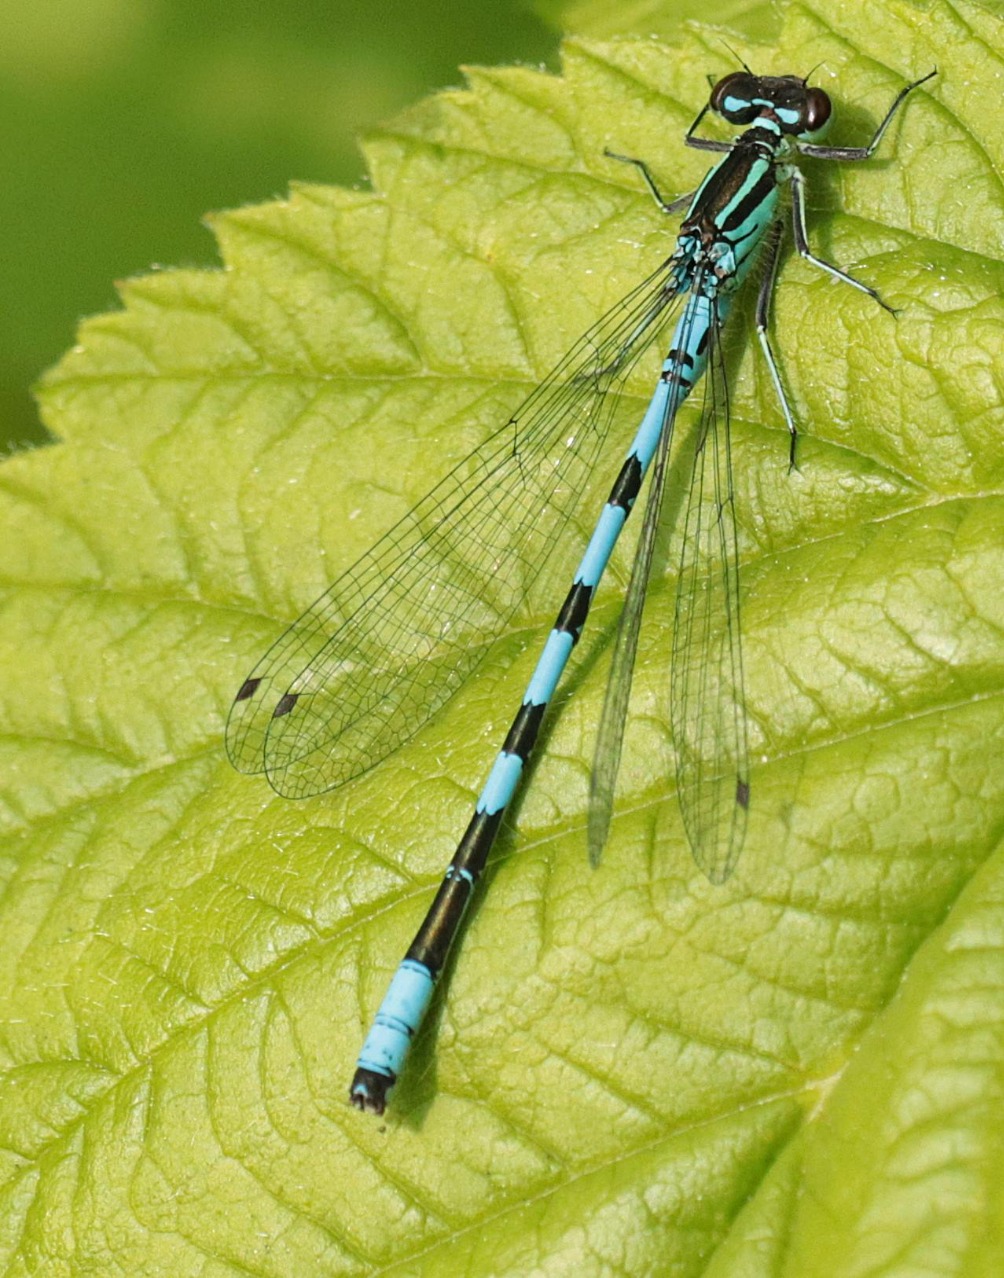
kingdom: Animalia
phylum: Arthropoda
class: Insecta
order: Odonata
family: Coenagrionidae
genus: Coenagrion
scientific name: Coenagrion hastulatum
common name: Spyd-vandnymfe
